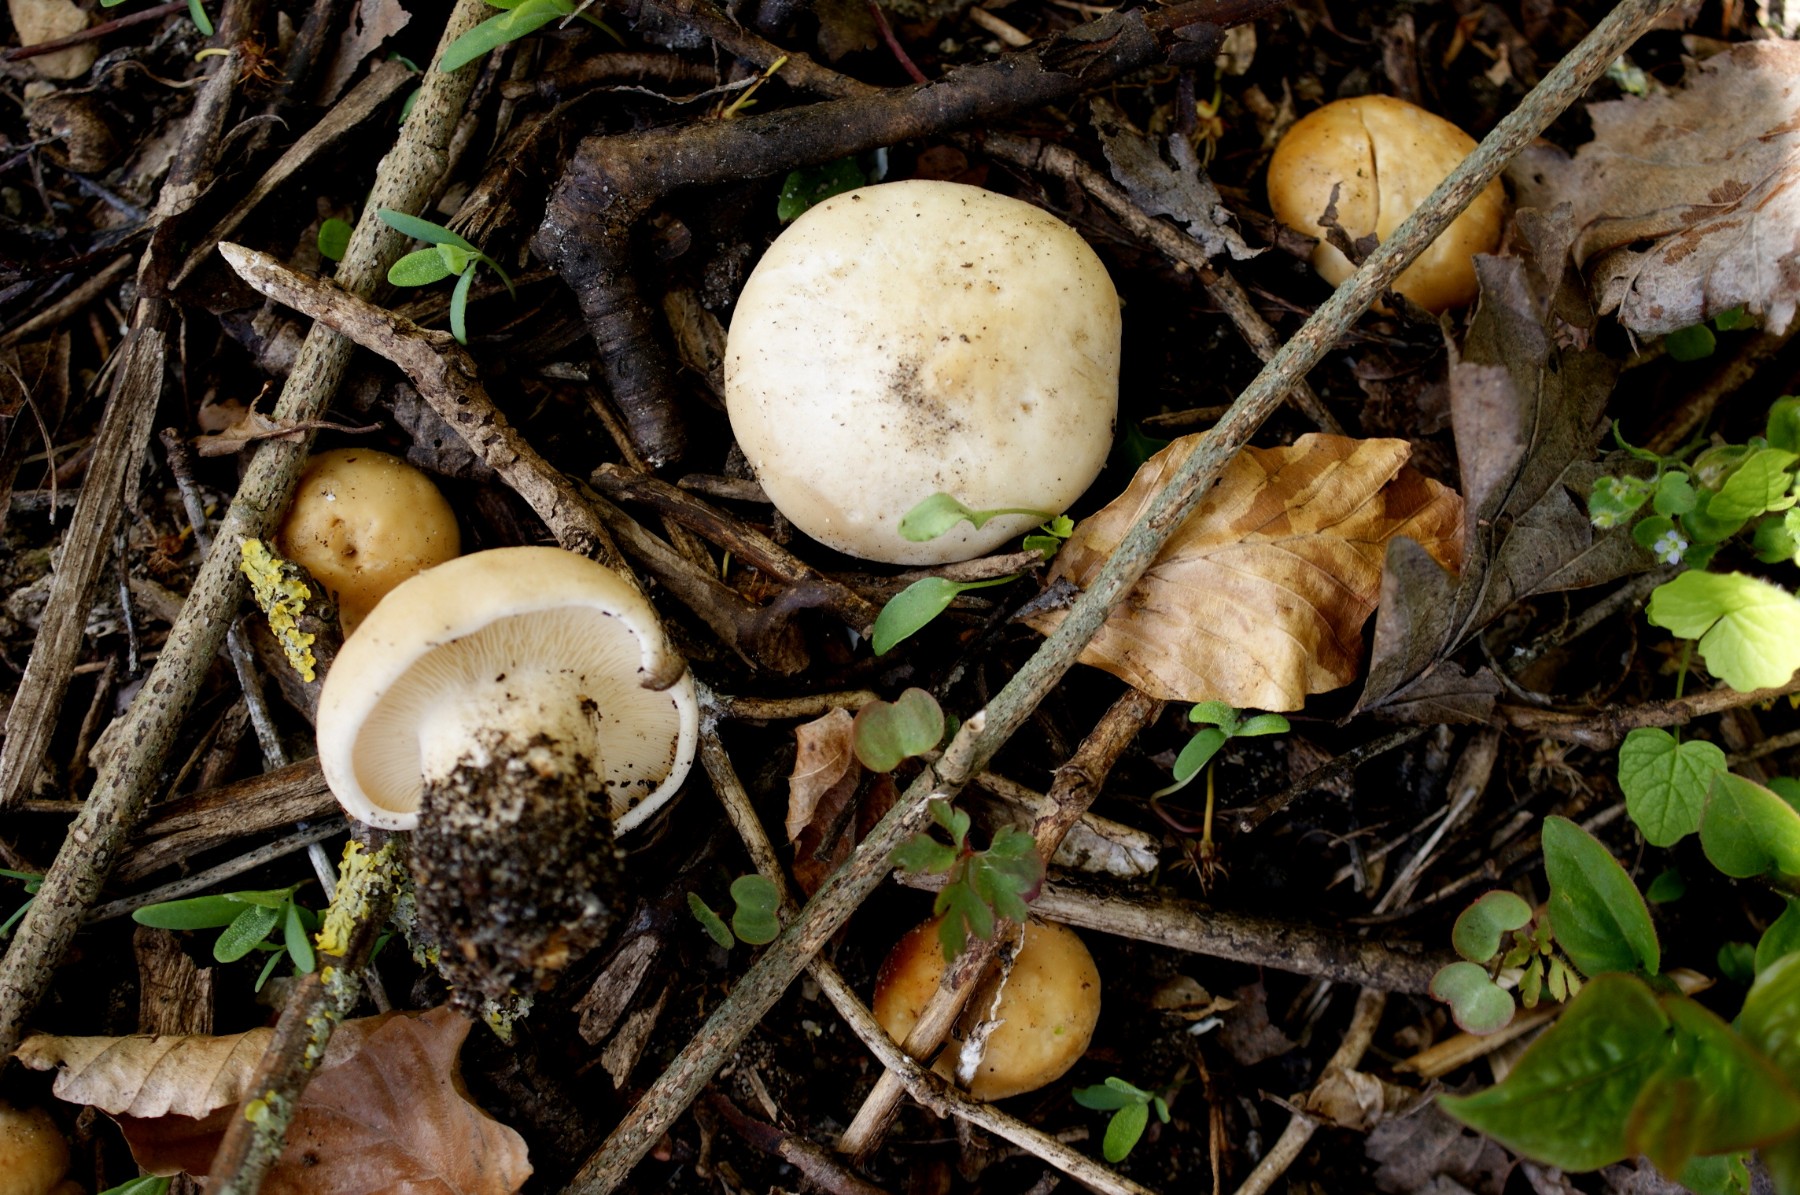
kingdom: Fungi
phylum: Basidiomycota
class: Agaricomycetes
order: Agaricales
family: Lyophyllaceae
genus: Calocybe
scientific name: Calocybe gambosa
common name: vårmusseron
